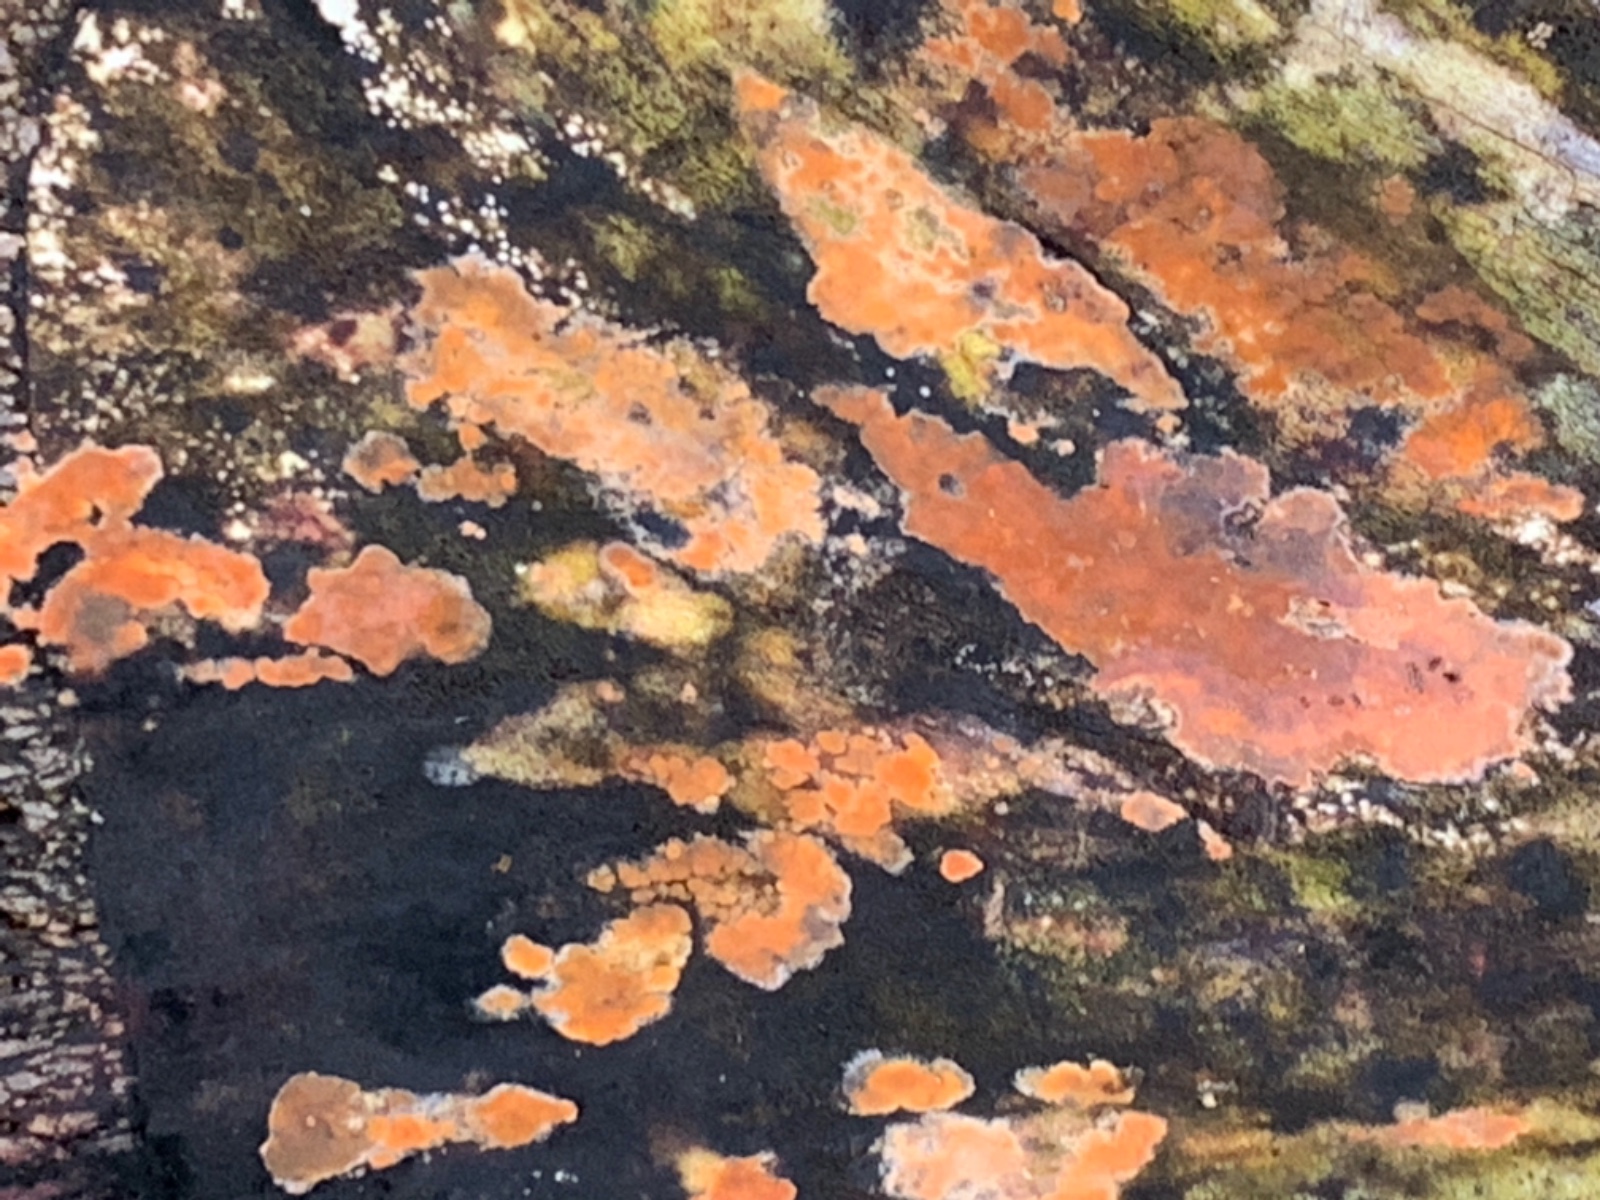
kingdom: Fungi
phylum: Basidiomycota
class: Agaricomycetes
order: Russulales
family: Peniophoraceae
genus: Peniophora
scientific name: Peniophora incarnata
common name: laksefarvet voksskind
